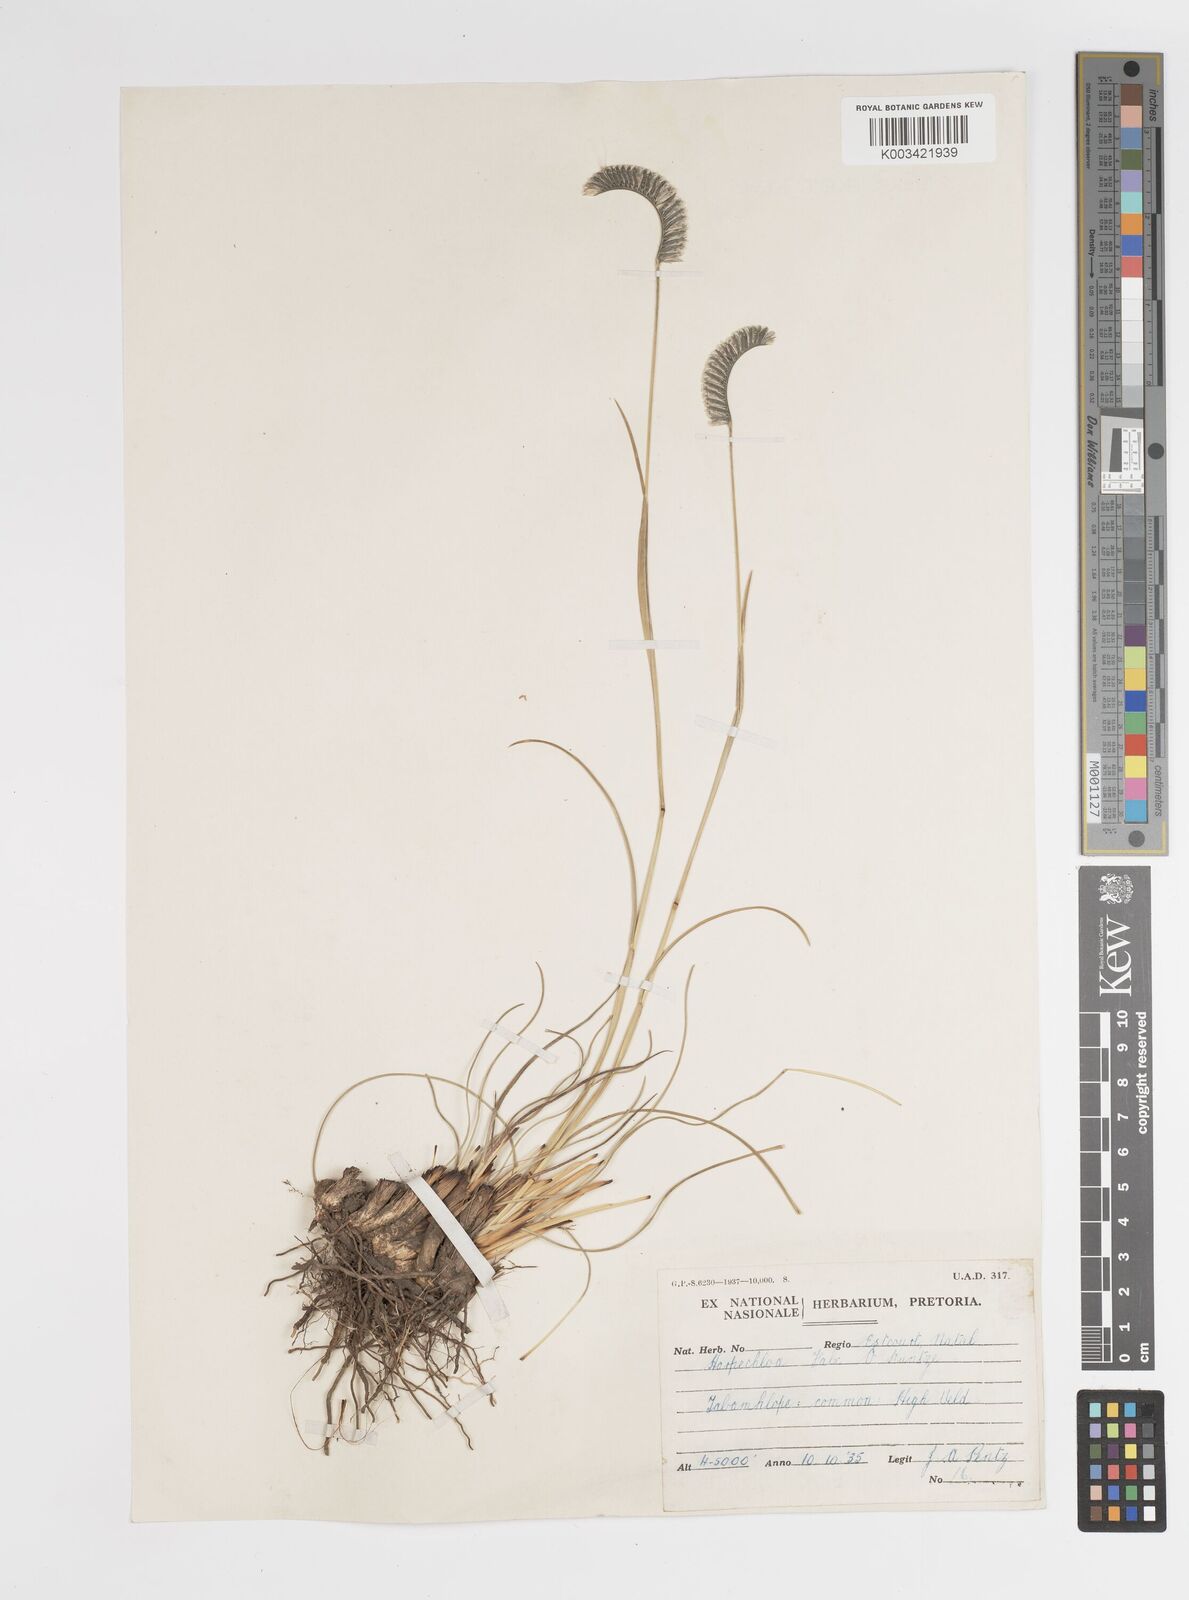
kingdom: Plantae
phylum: Tracheophyta
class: Liliopsida
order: Poales
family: Poaceae
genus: Harpochloa
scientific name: Harpochloa falx
